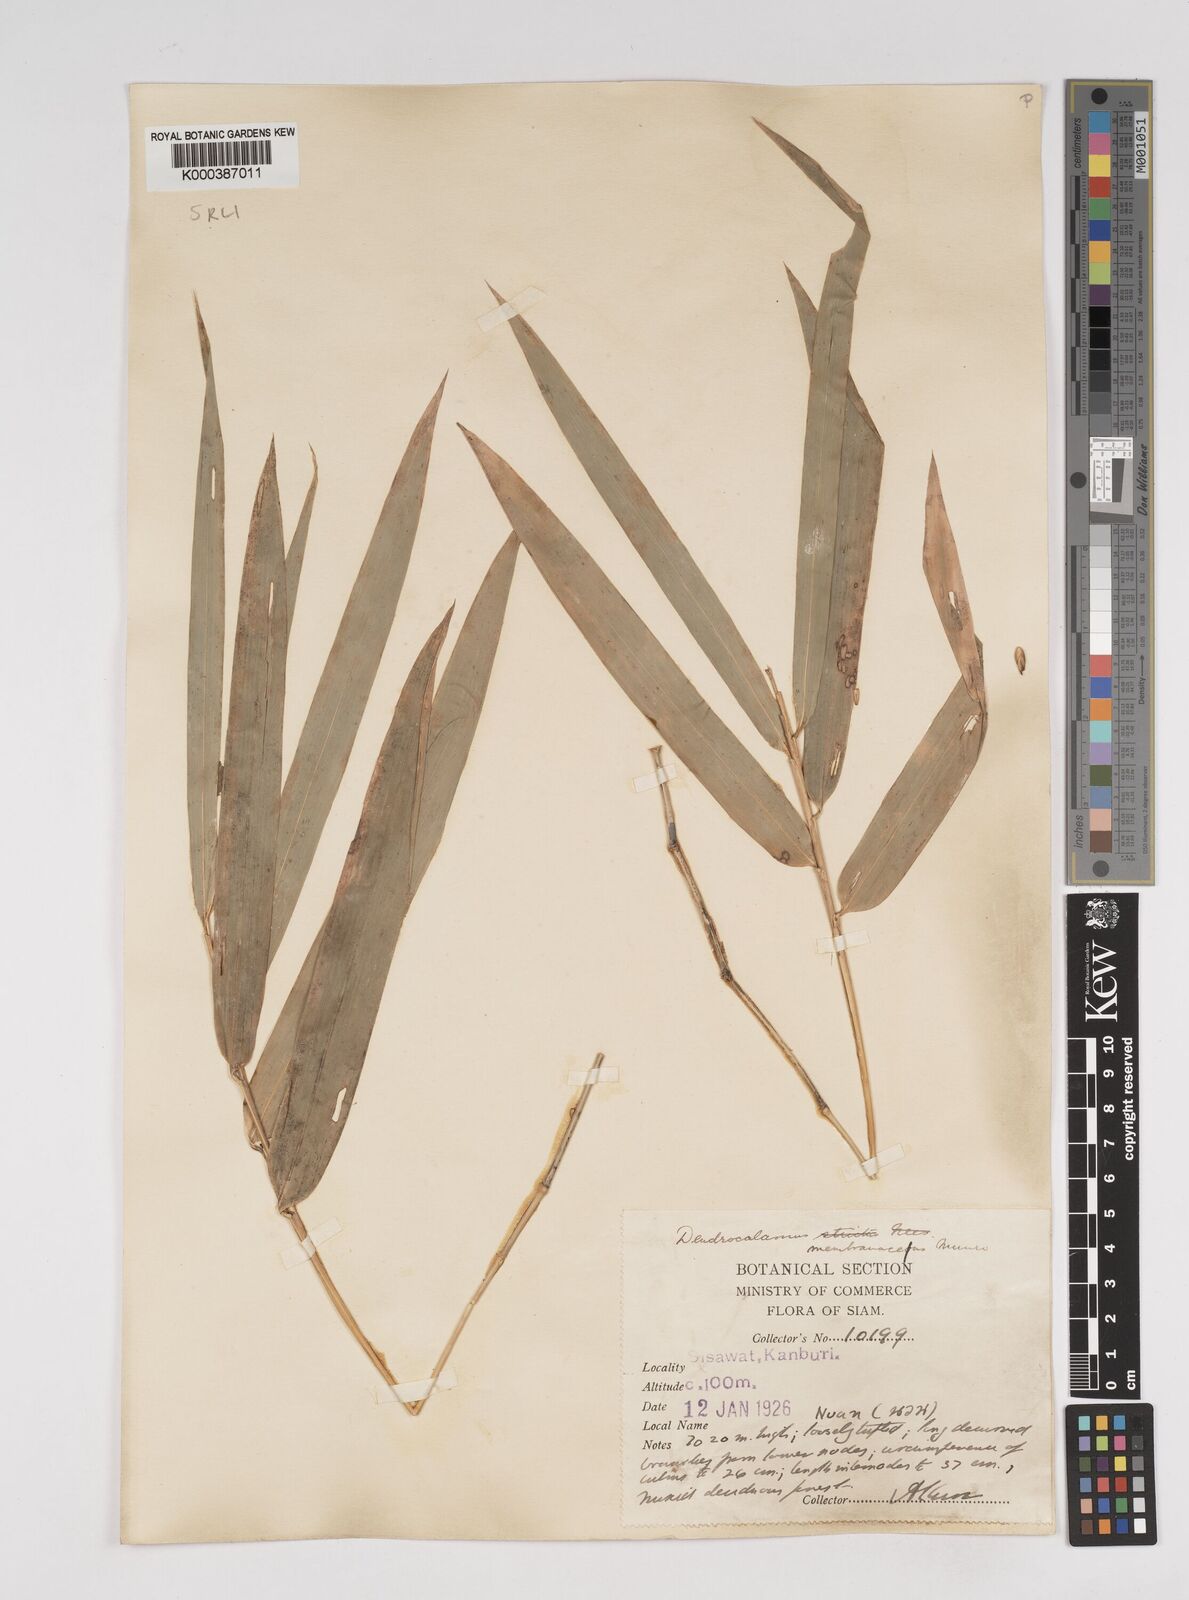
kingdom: Plantae
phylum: Tracheophyta
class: Liliopsida
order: Poales
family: Poaceae
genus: Dendrocalamus
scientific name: Dendrocalamus membranaceus
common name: White bamboo
